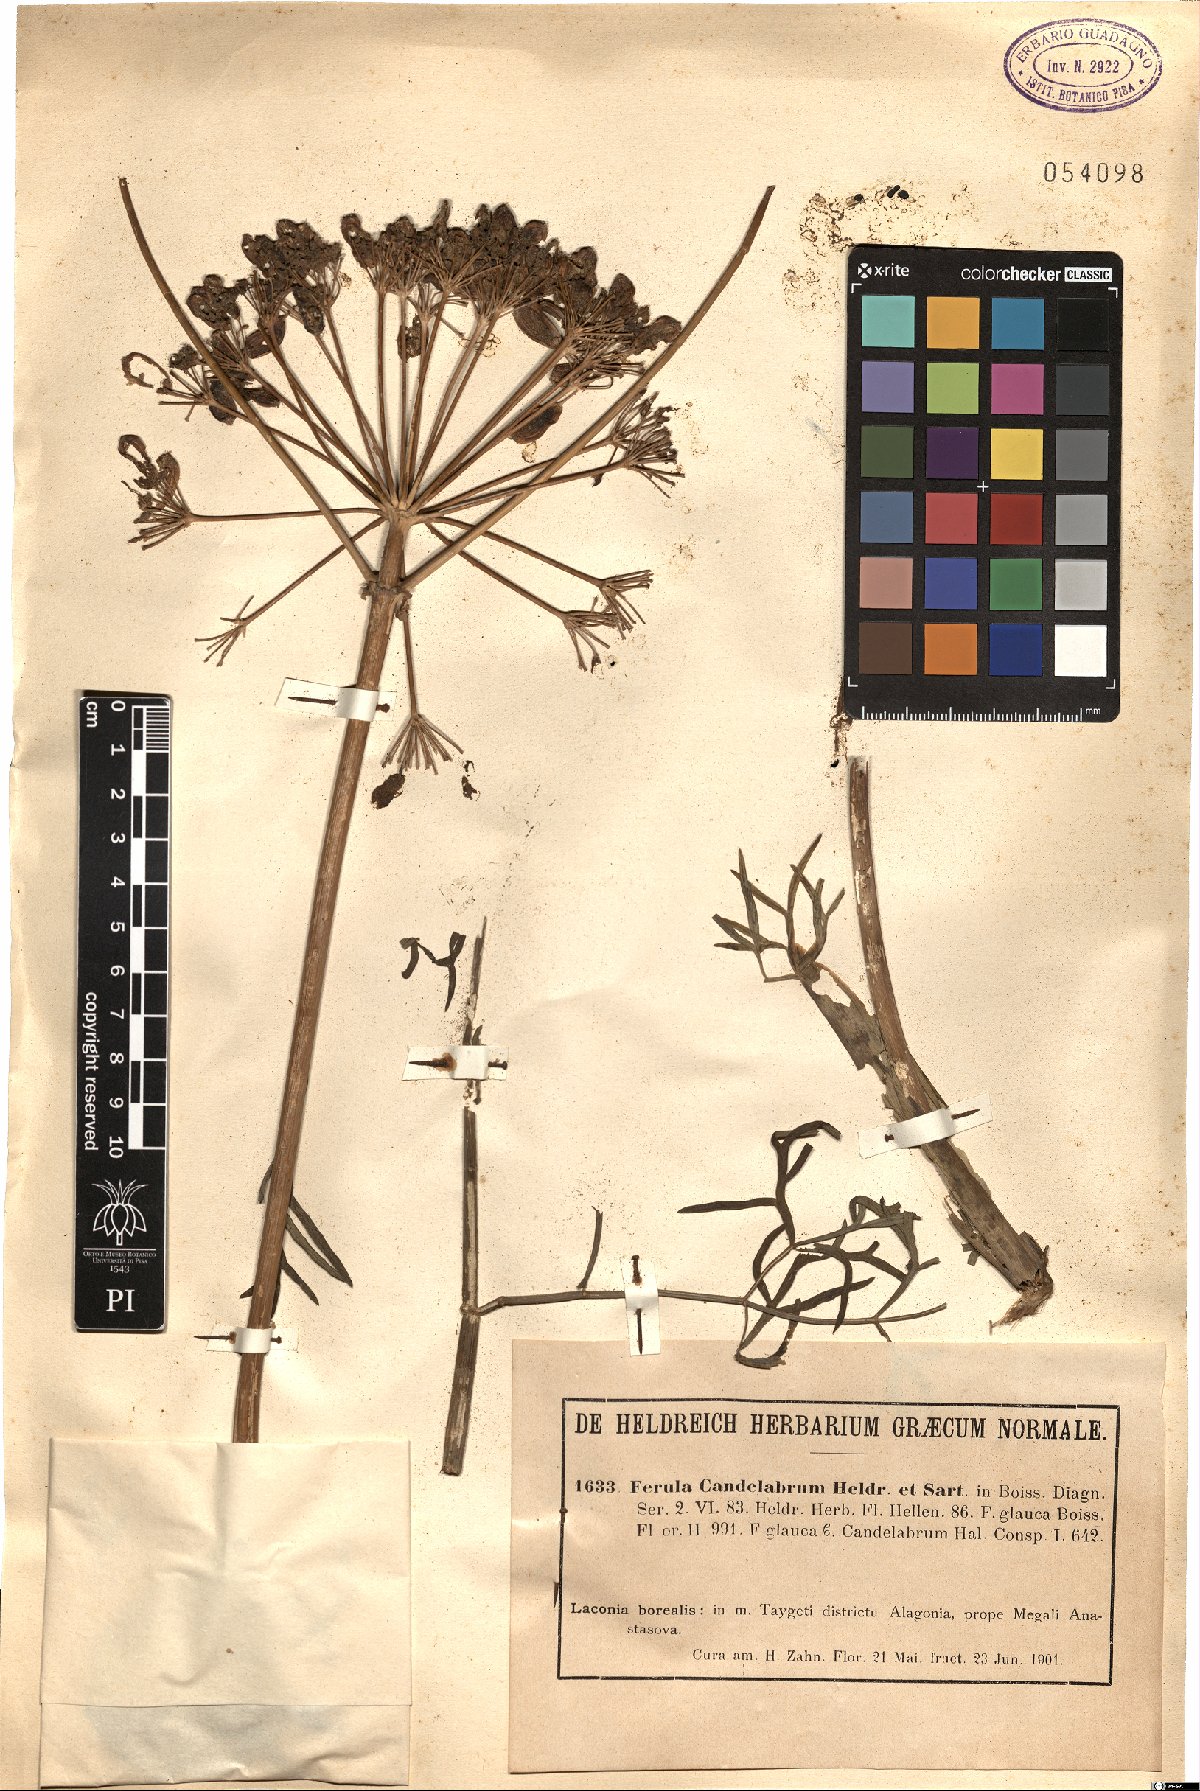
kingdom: Plantae
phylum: Tracheophyta
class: Magnoliopsida
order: Apiales
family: Apiaceae
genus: Ferula
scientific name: Ferula glauca
